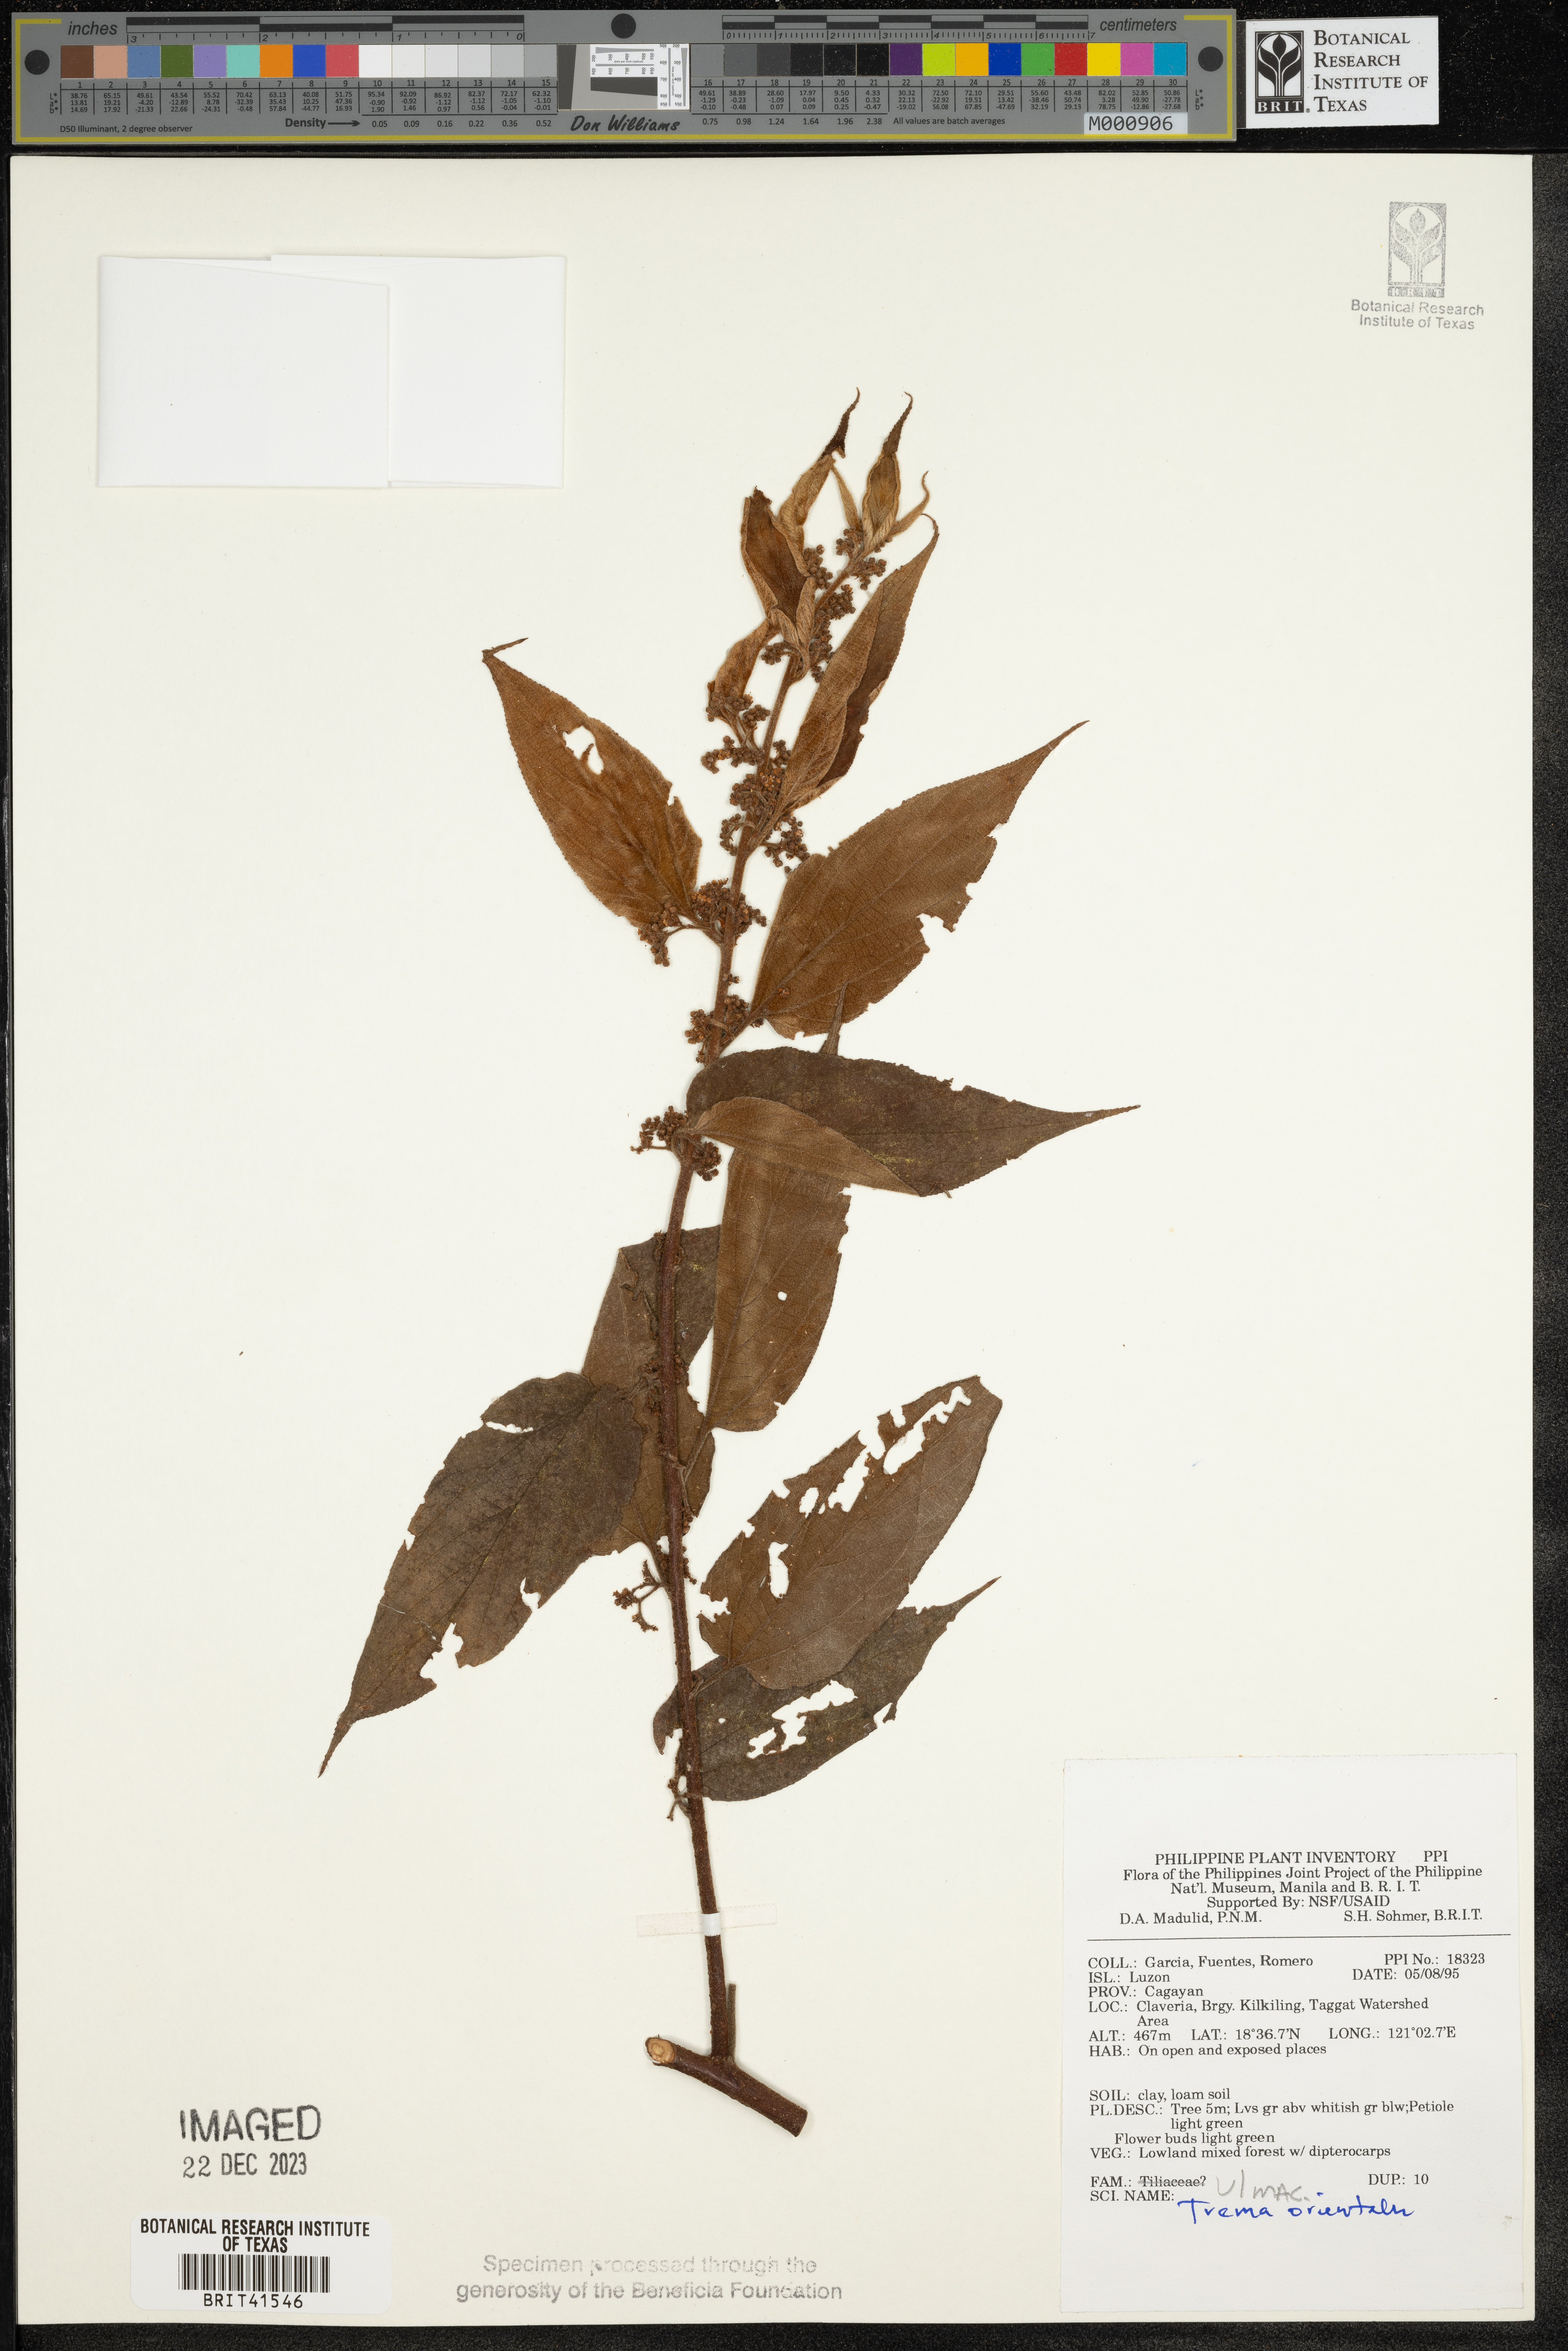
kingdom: Plantae
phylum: Tracheophyta
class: Magnoliopsida
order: Rosales
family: Cannabaceae
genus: Trema
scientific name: Trema orientale
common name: Indian charcoal tree
